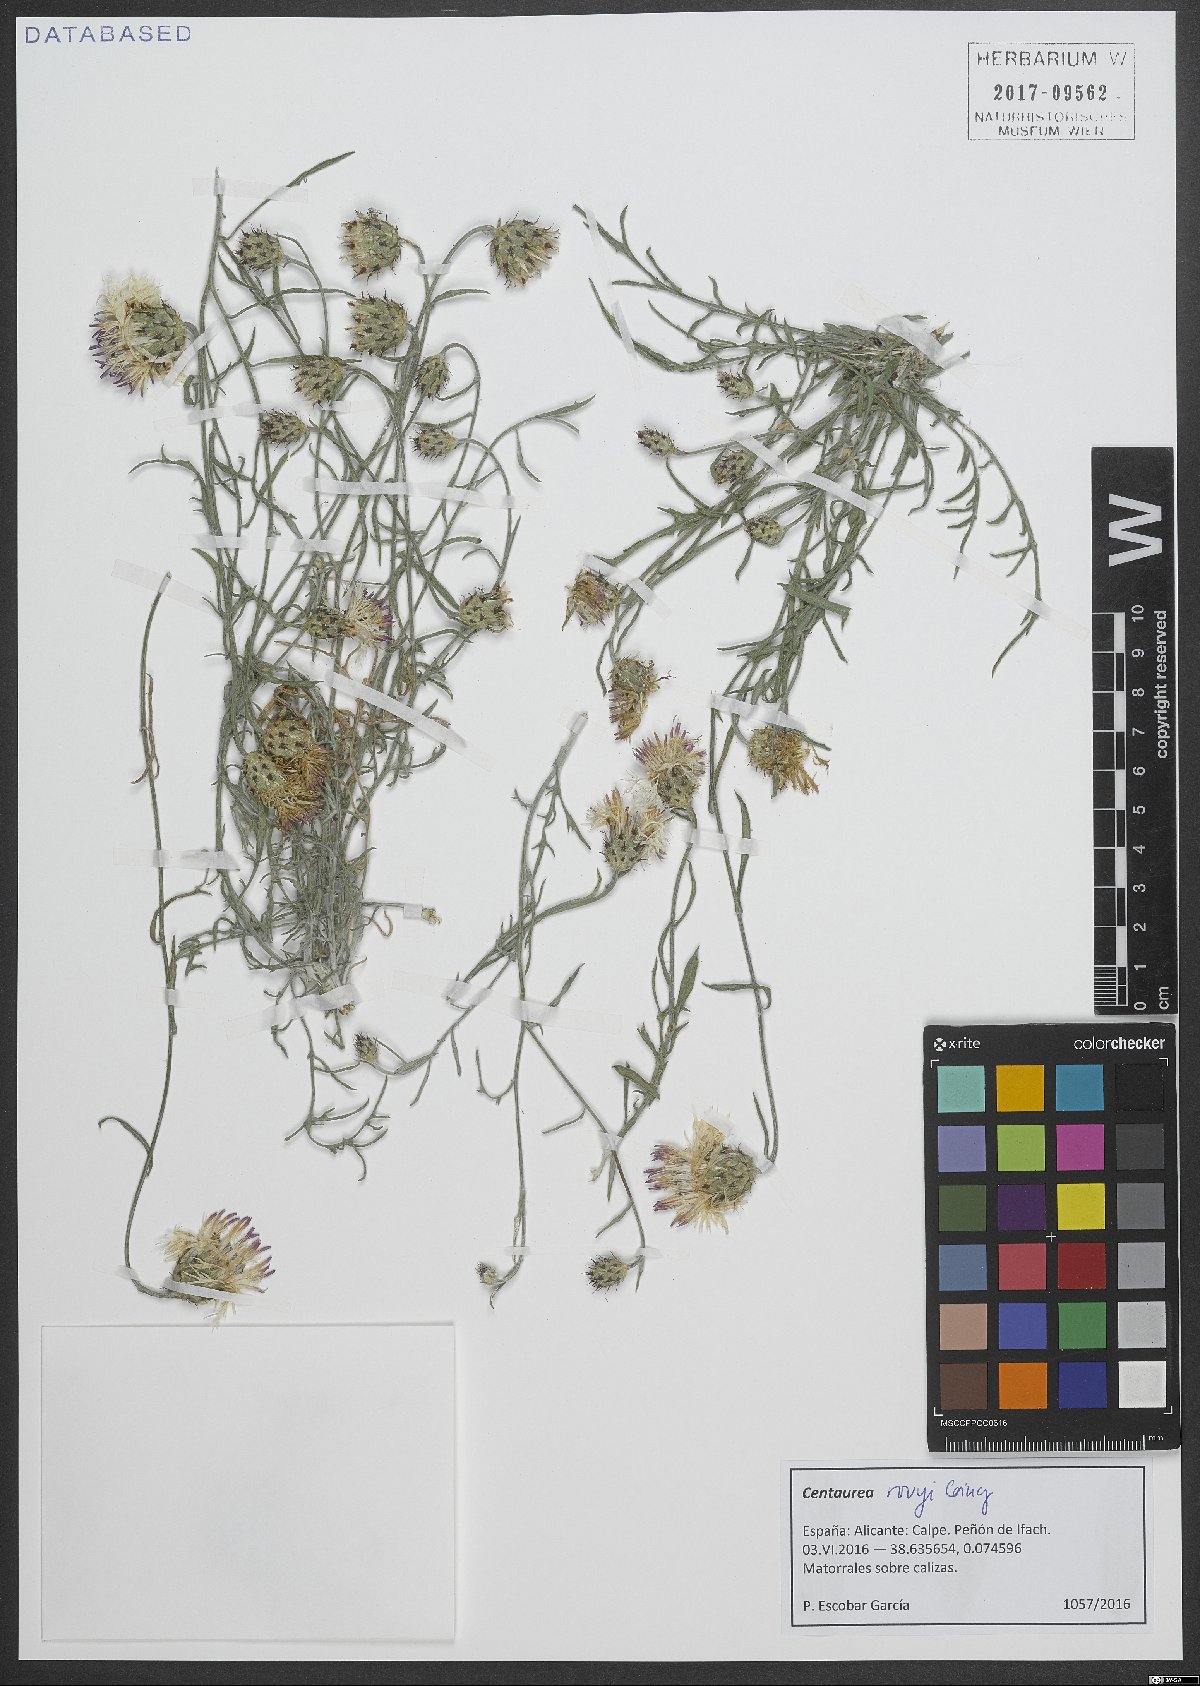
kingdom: Plantae
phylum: Tracheophyta
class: Magnoliopsida
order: Asterales
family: Asteraceae
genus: Centaurea
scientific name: Centaurea rouyi
